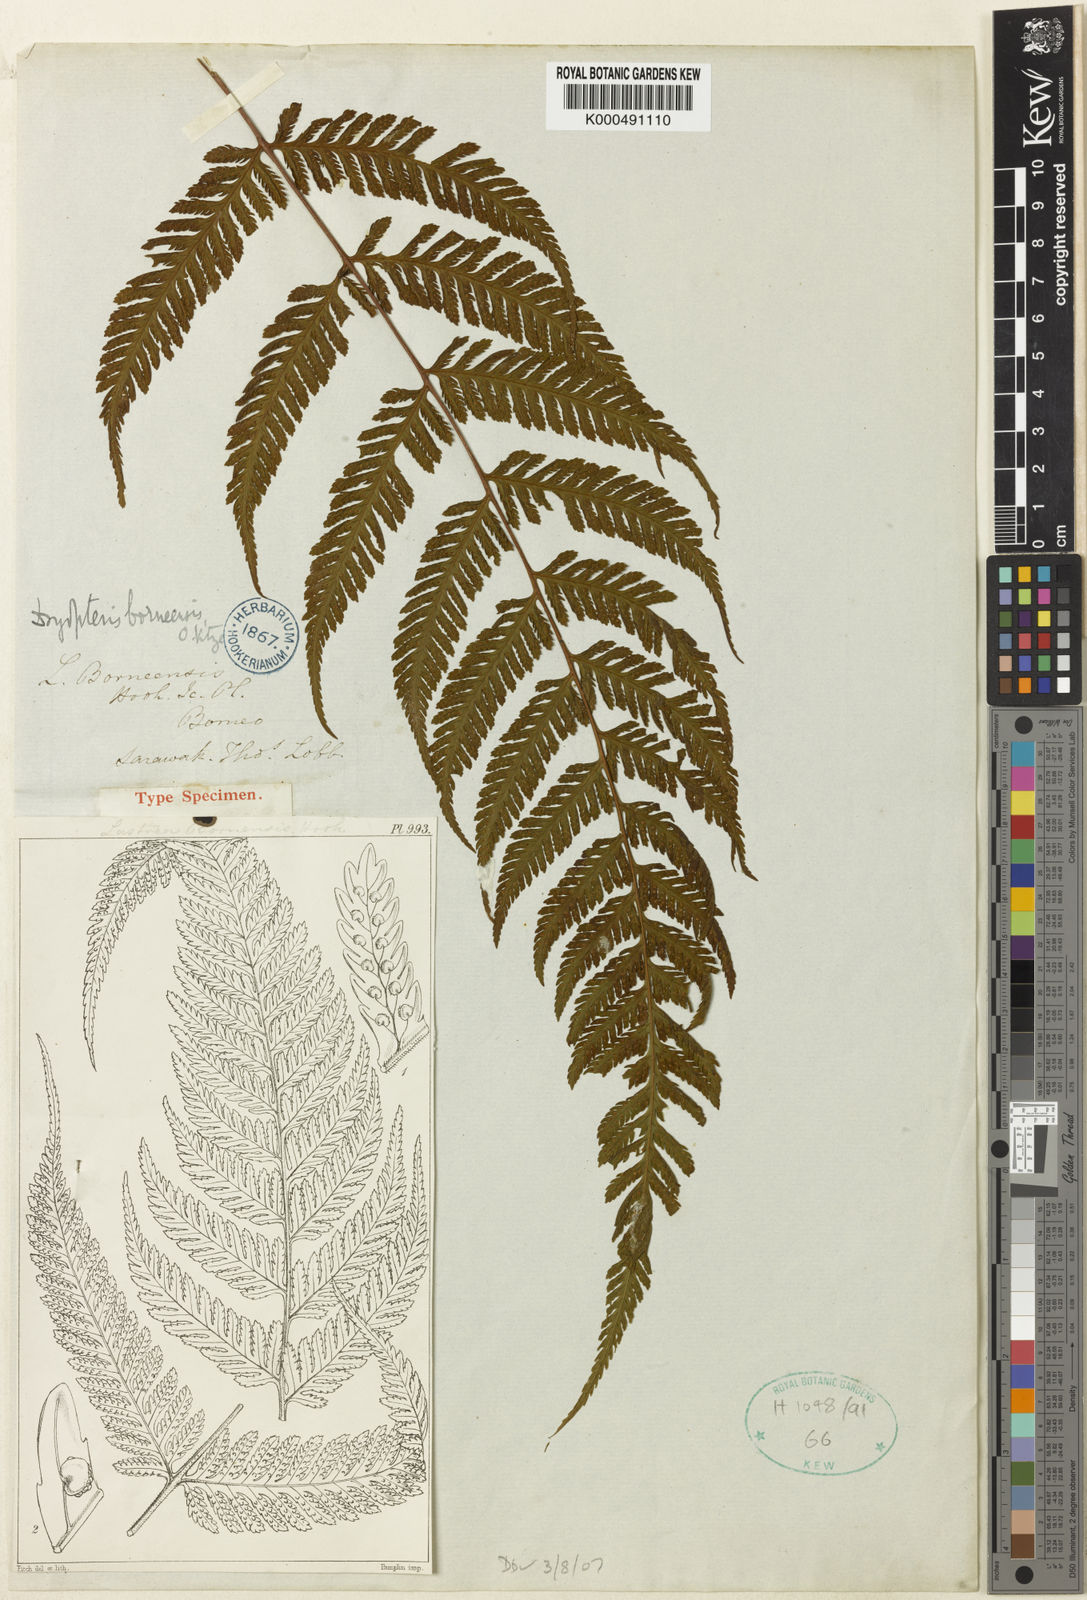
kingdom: Plantae
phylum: Tracheophyta
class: Polypodiopsida
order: Polypodiales
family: Davalliaceae
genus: Davallodes
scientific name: Davallodes borneensis
